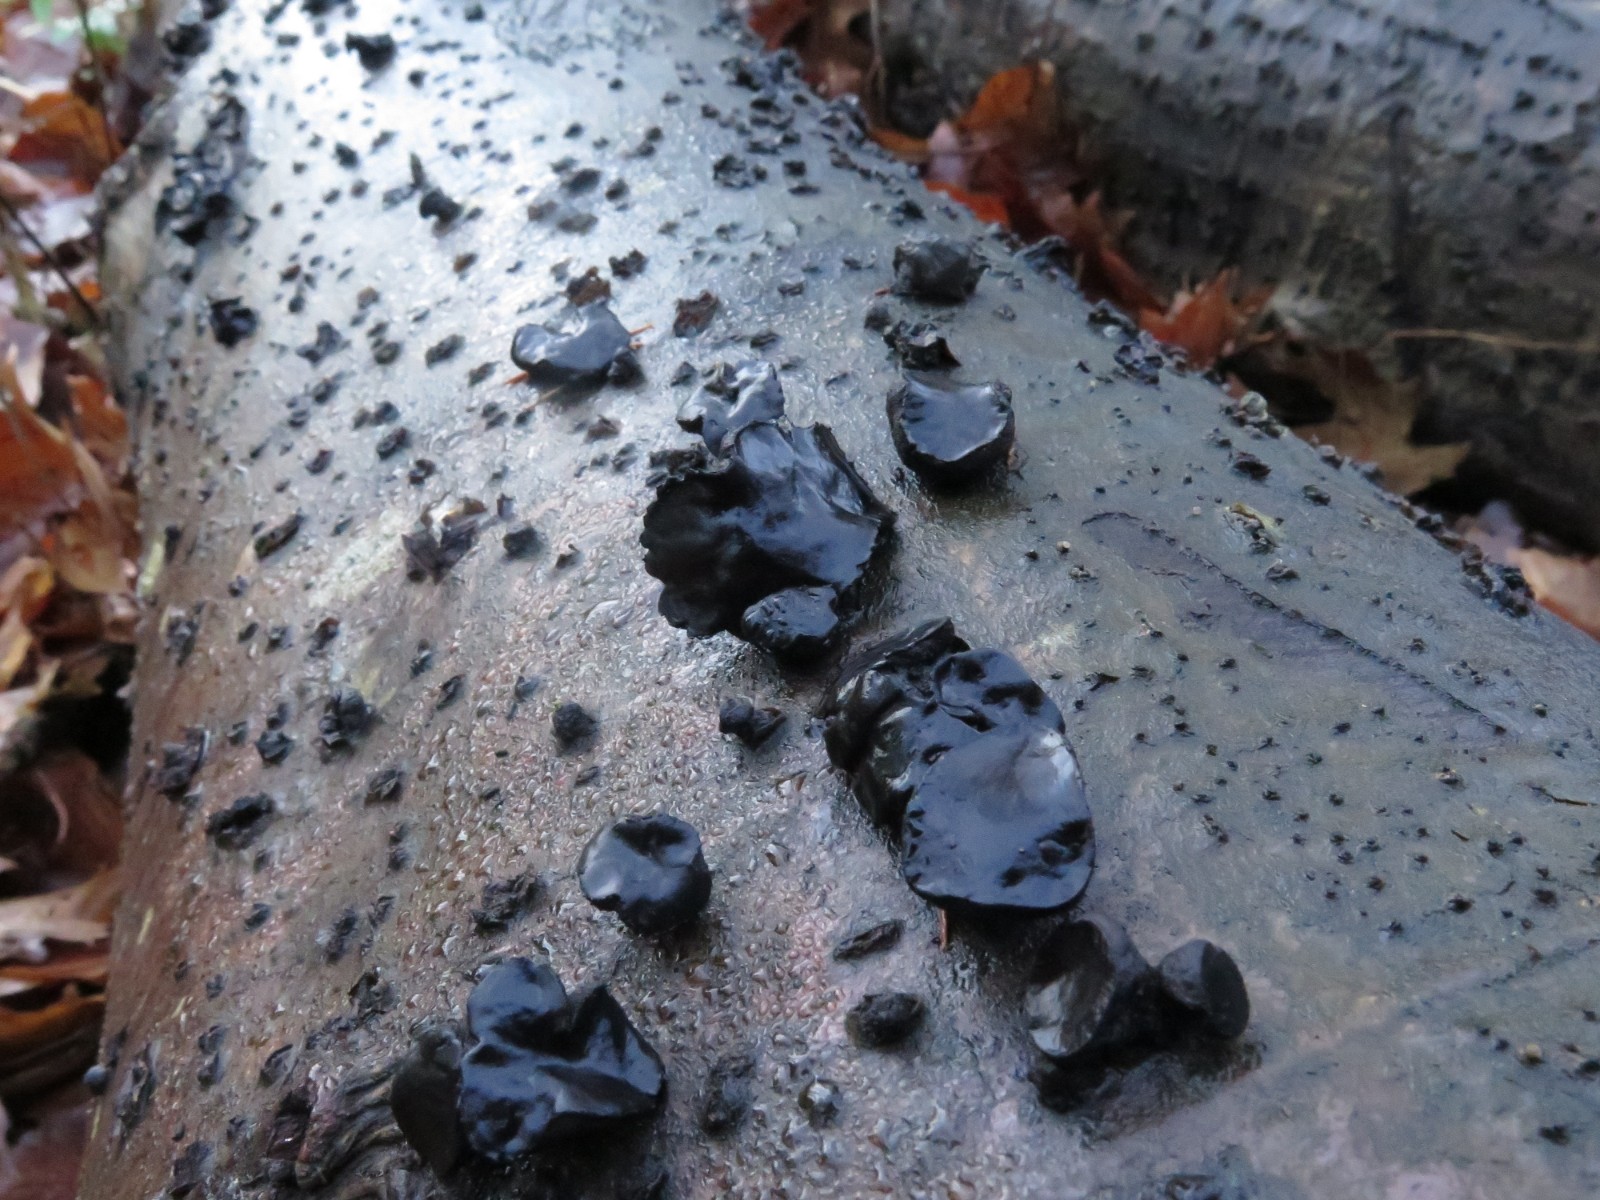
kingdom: Fungi
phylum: Ascomycota
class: Leotiomycetes
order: Phacidiales
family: Phacidiaceae
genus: Bulgaria
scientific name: Bulgaria inquinans
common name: afsmittende topsvamp
